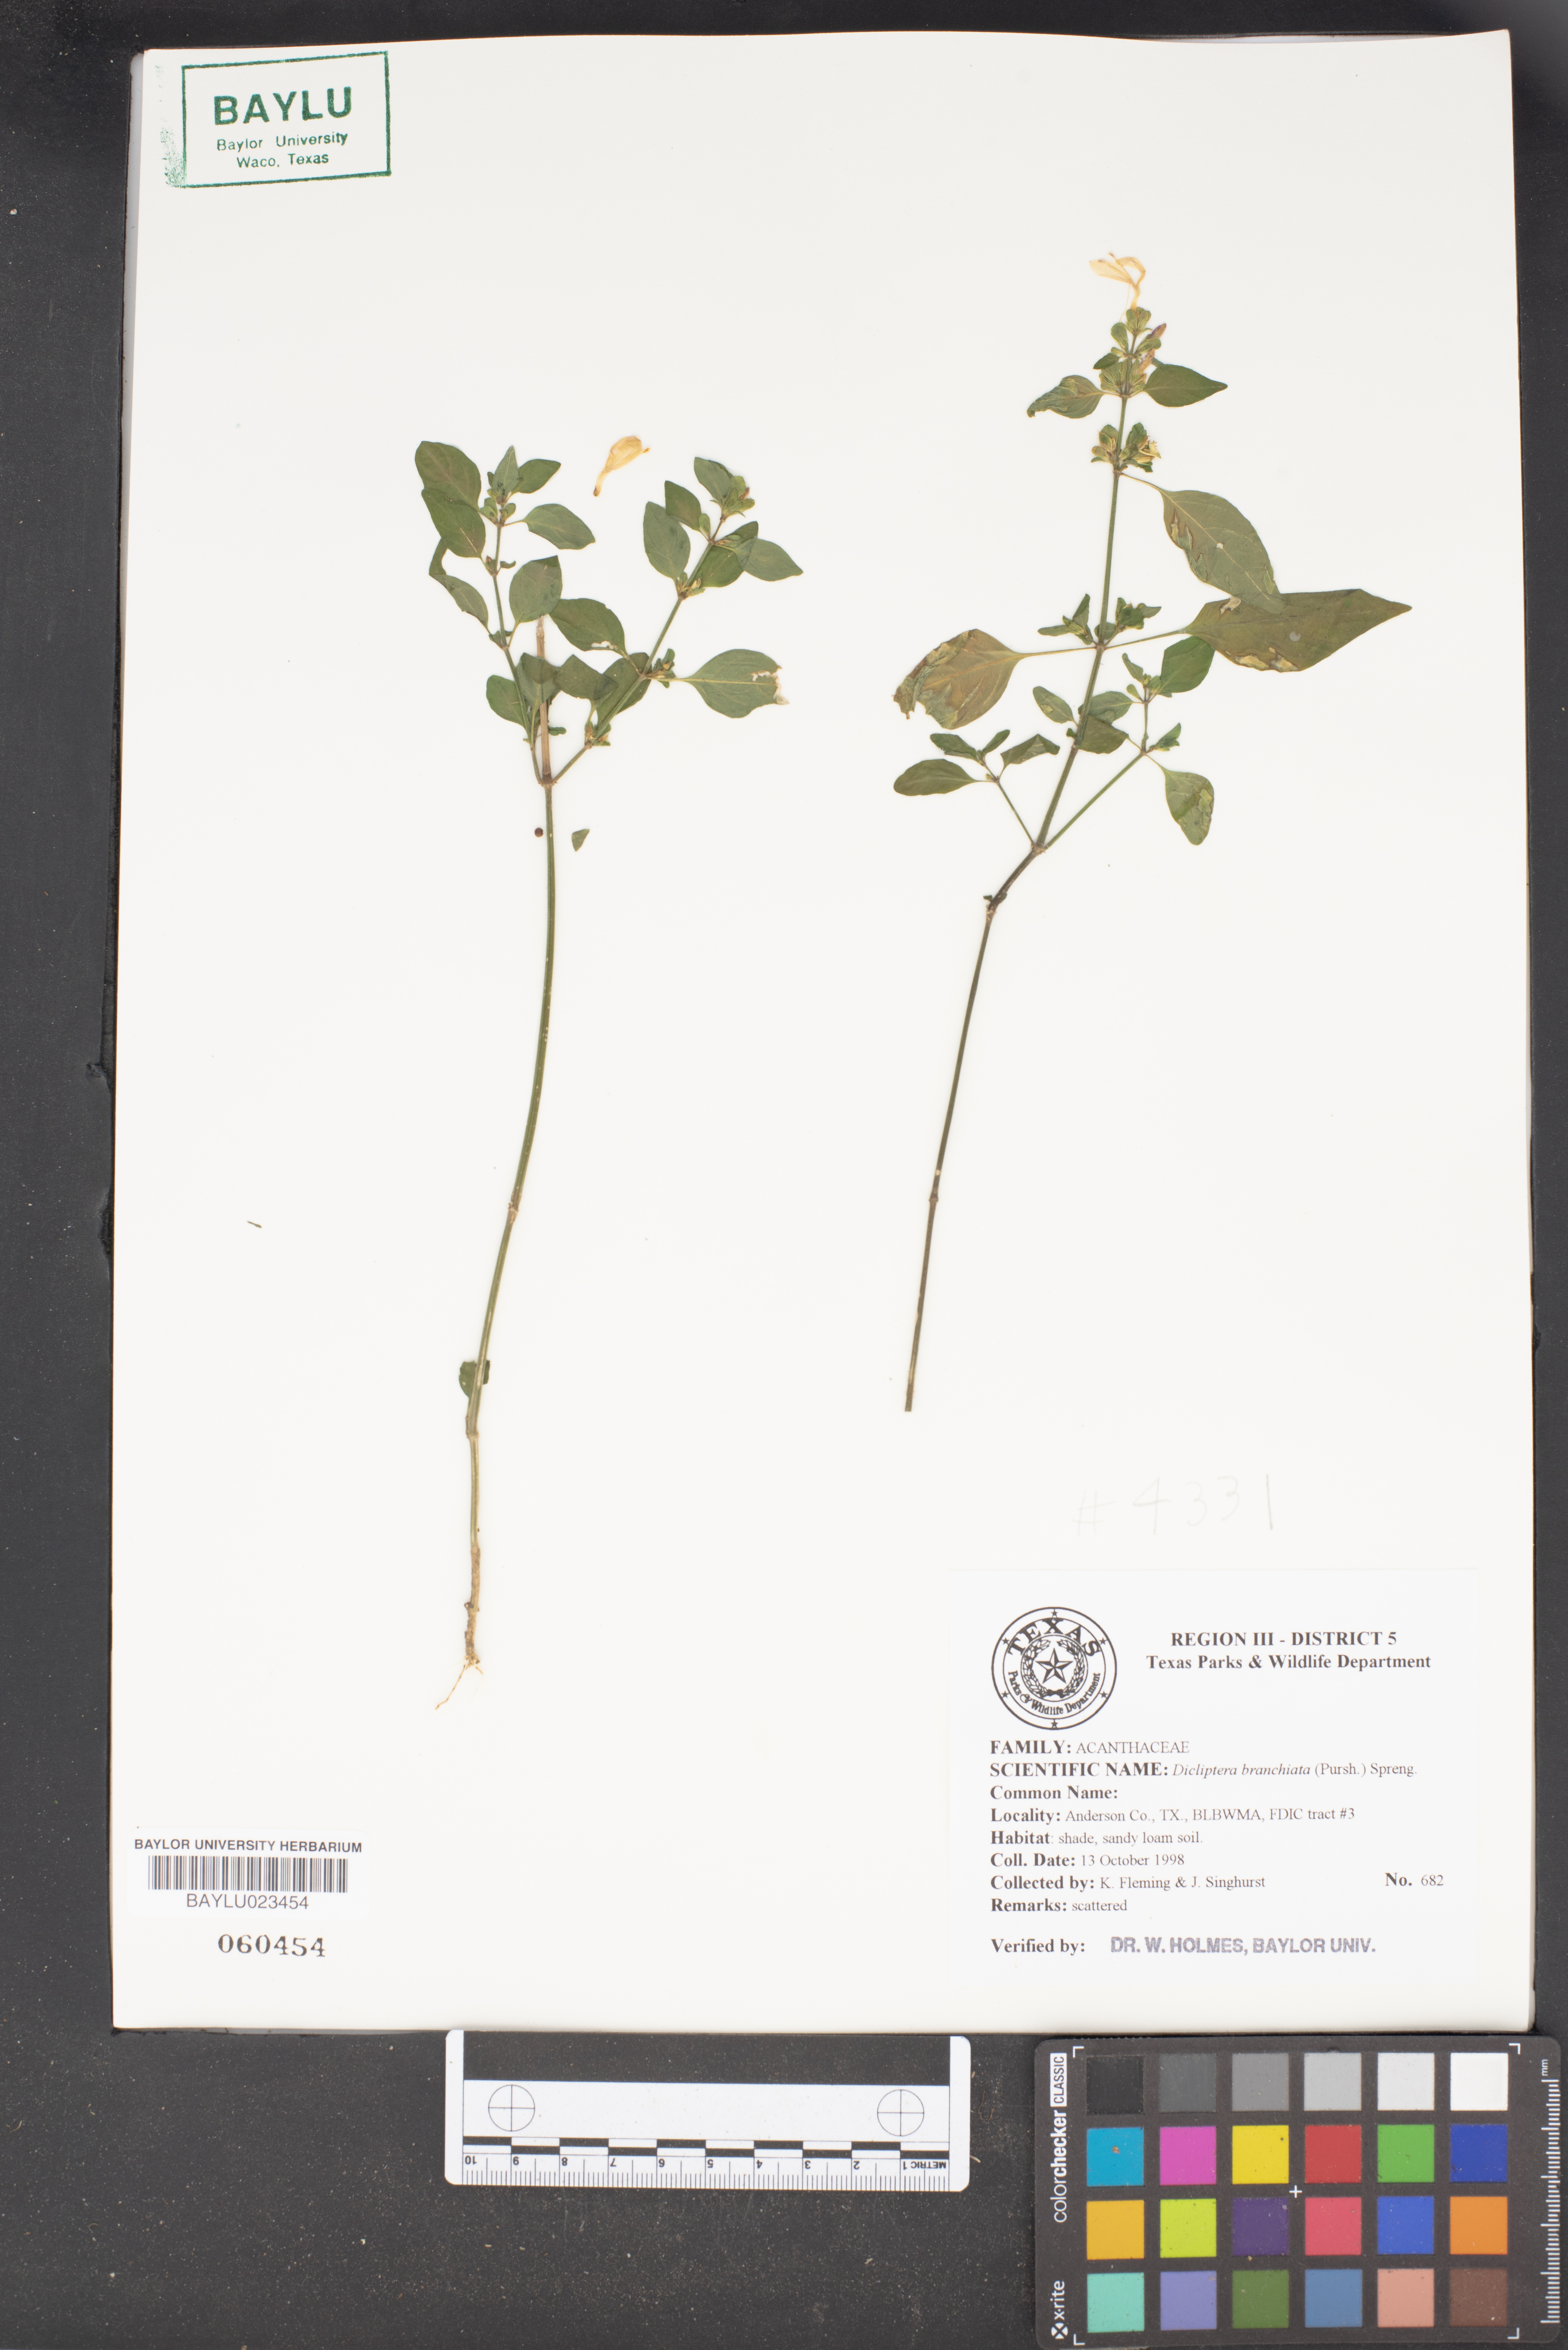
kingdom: Plantae
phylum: Tracheophyta
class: Magnoliopsida
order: Lamiales
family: Acanthaceae
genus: Dicliptera
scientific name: Dicliptera brachiata
